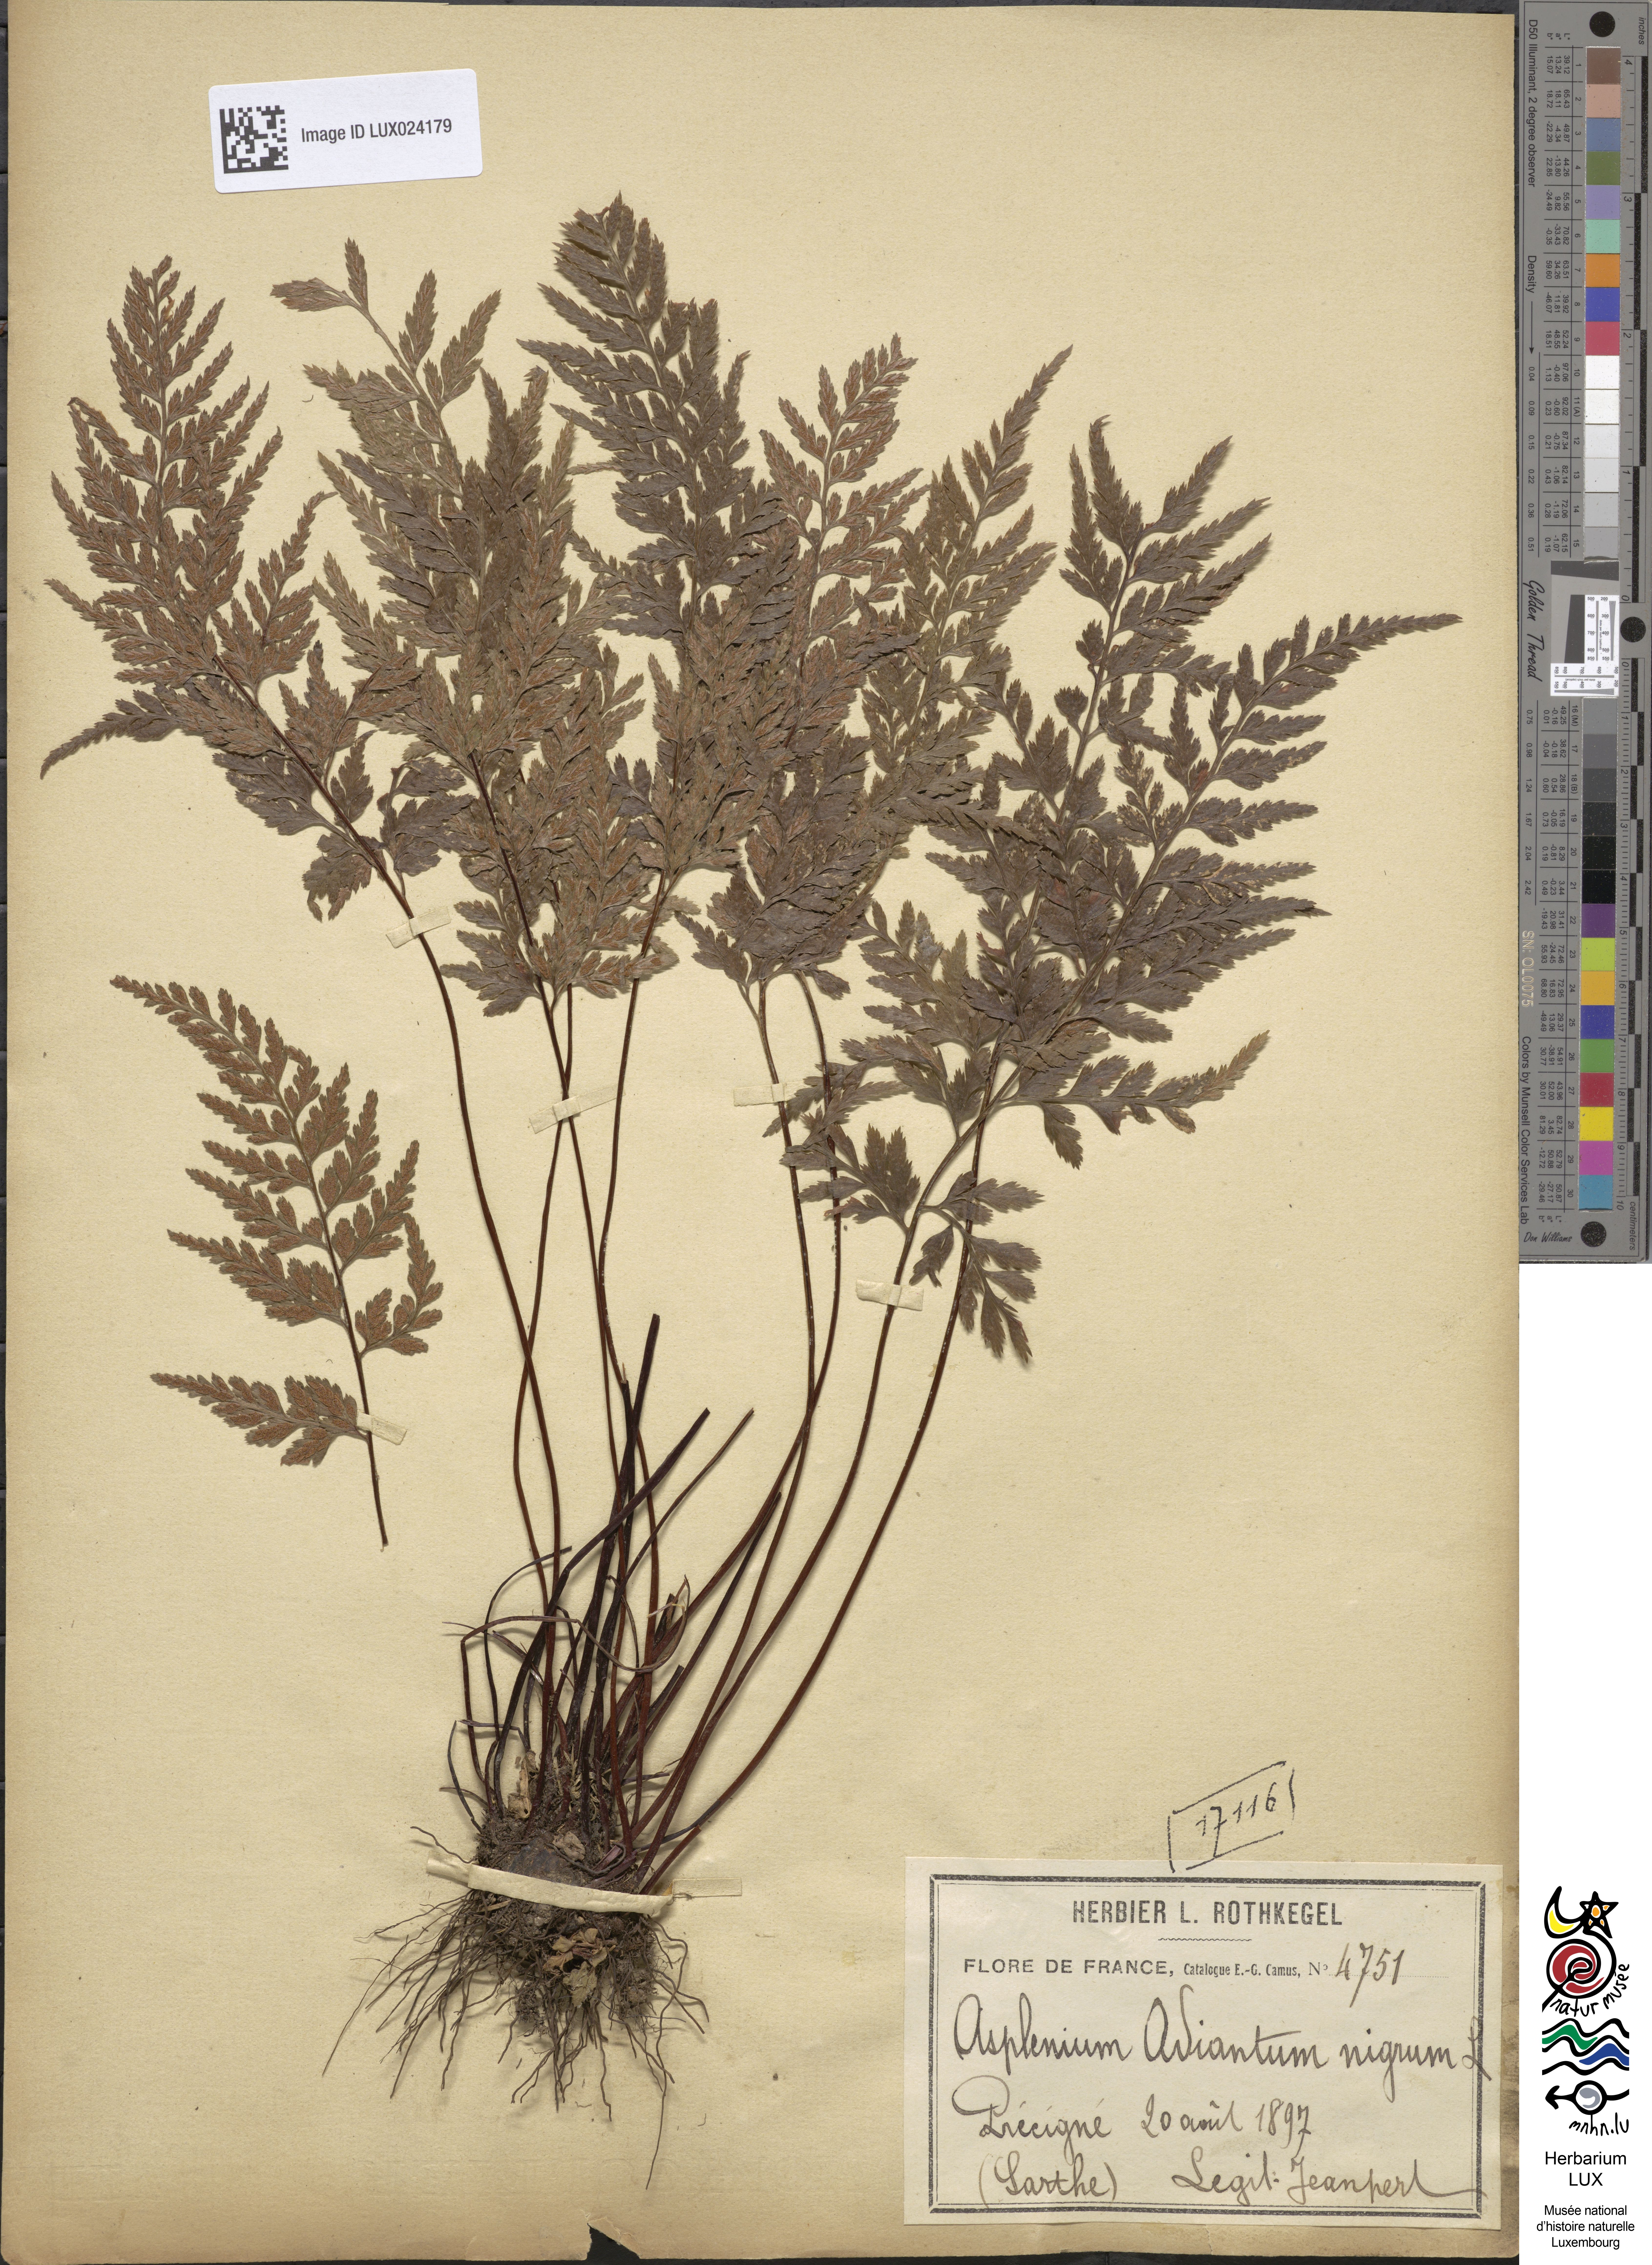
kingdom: Plantae
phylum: Tracheophyta
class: Polypodiopsida
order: Polypodiales
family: Aspleniaceae
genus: Asplenium
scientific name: Asplenium adiantum-nigrum
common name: Black spleenwort
